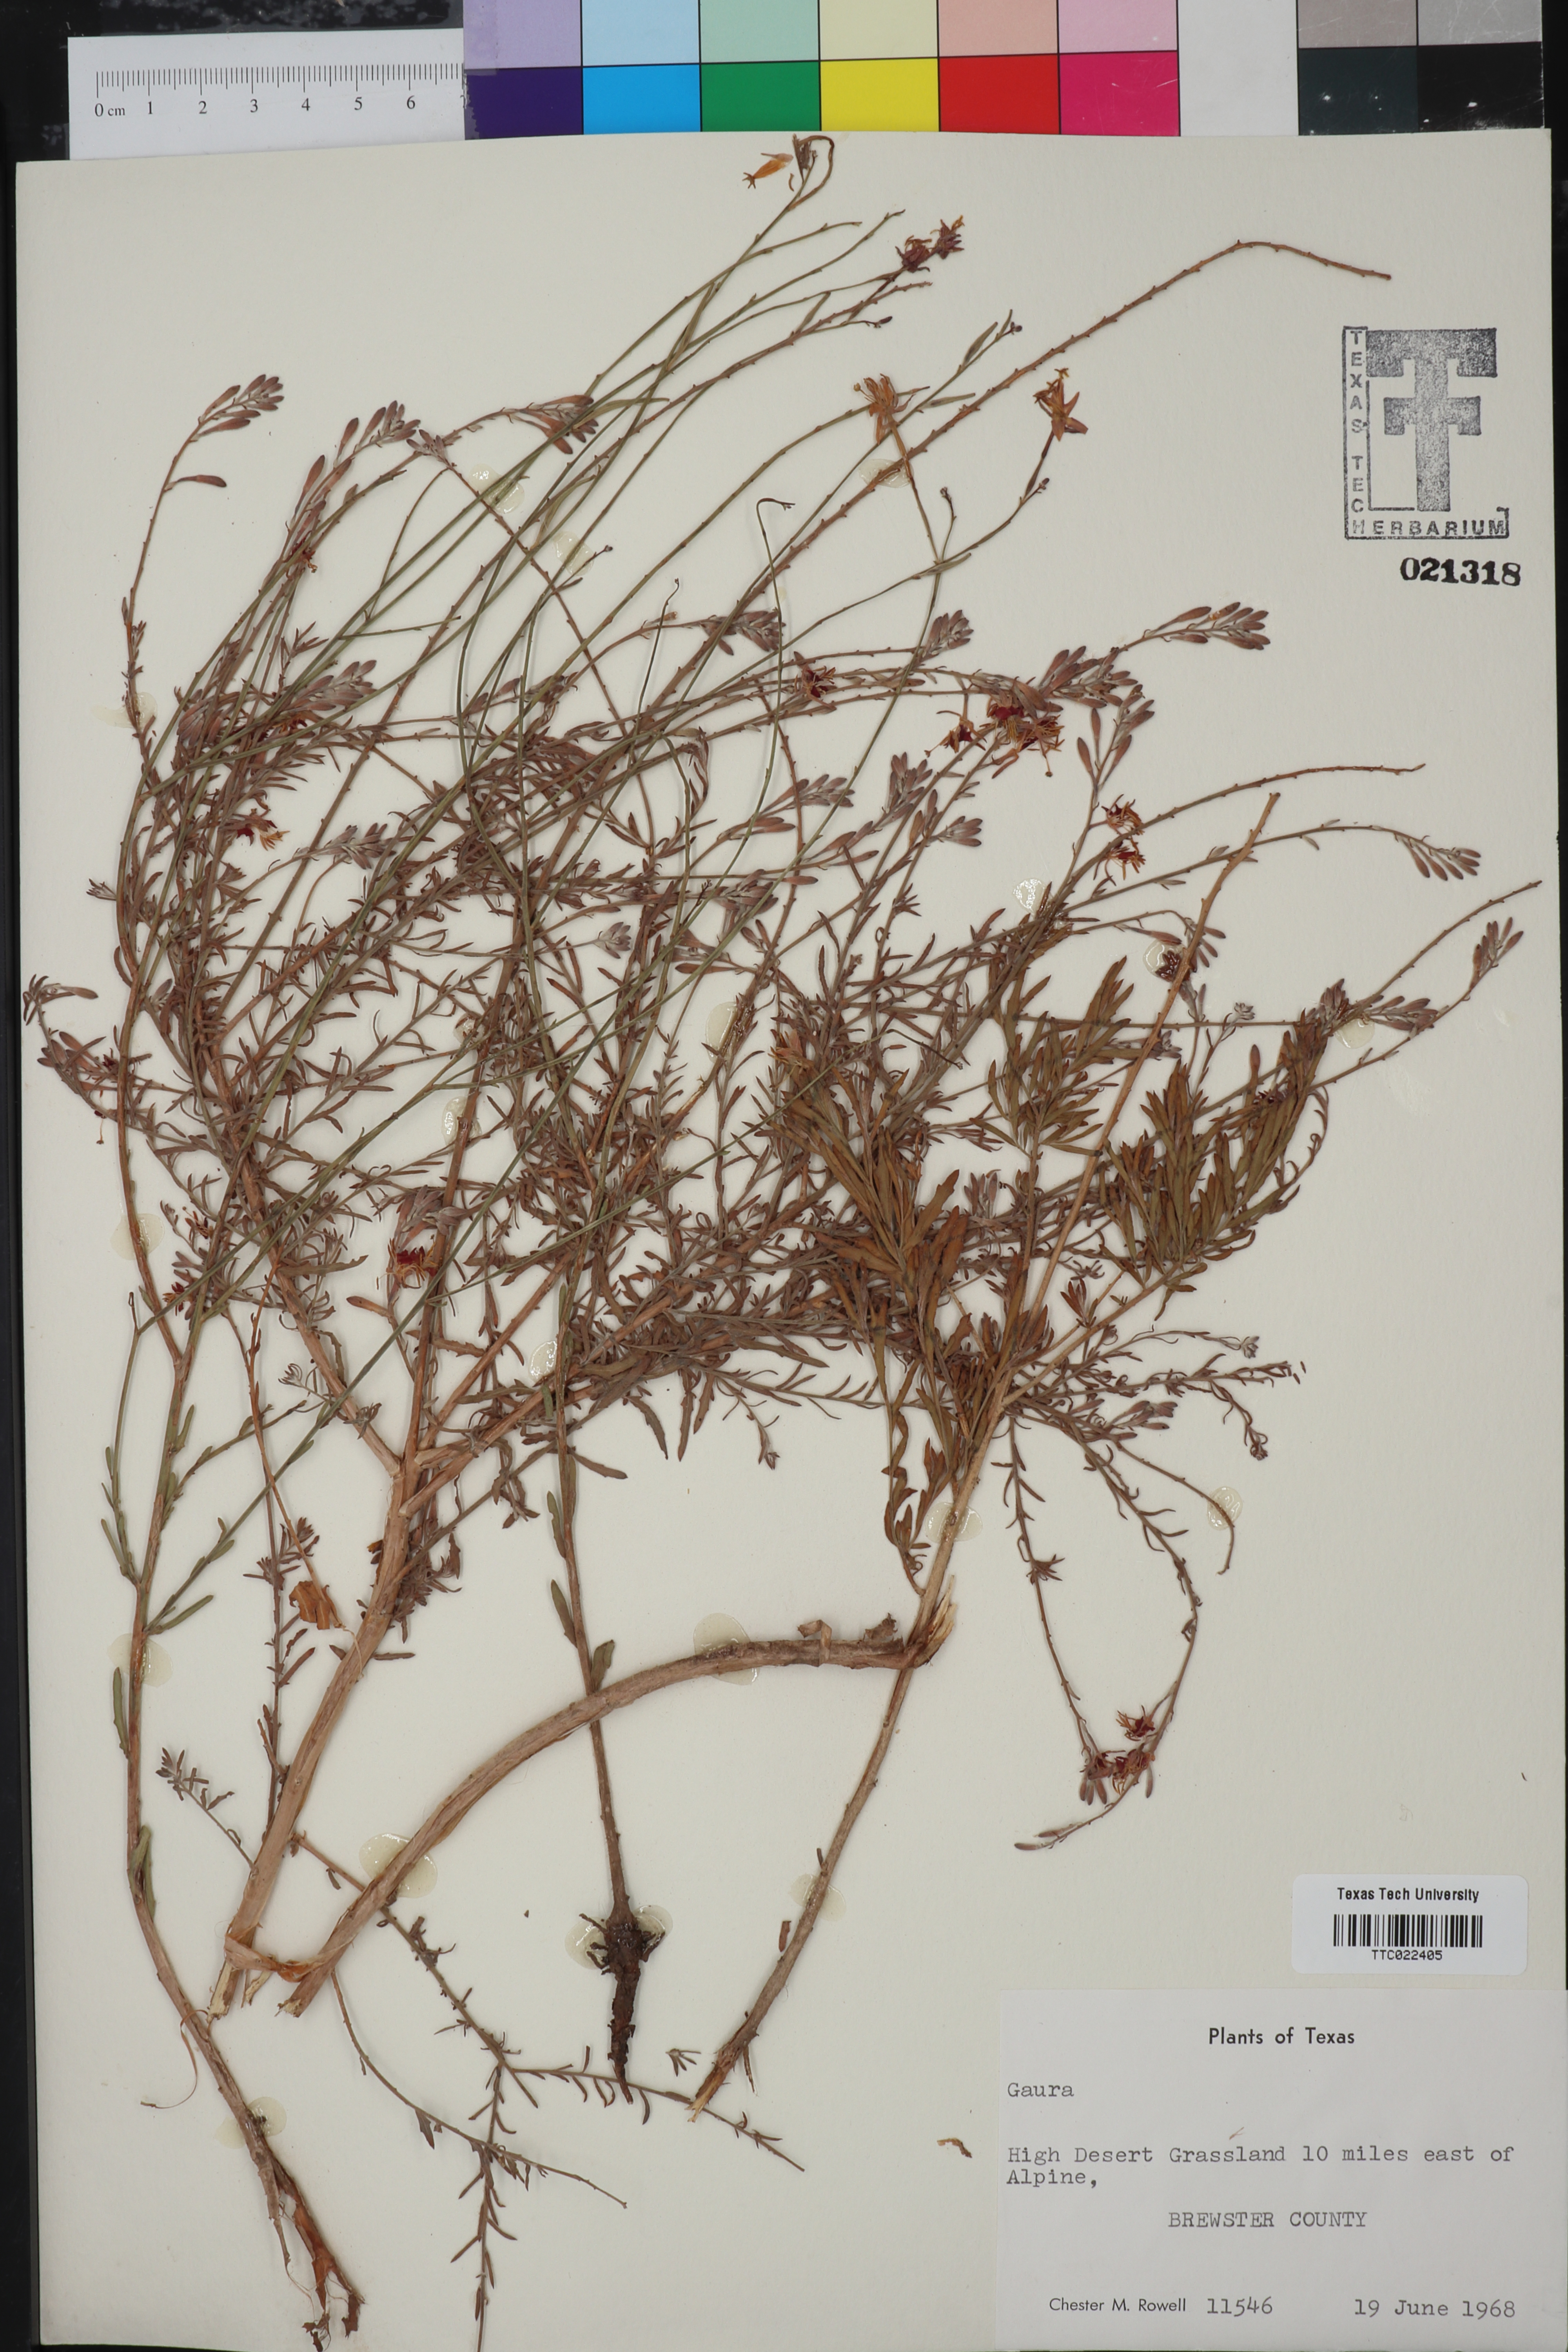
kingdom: Plantae
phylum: Tracheophyta
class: Magnoliopsida
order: Myrtales
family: Onagraceae
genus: Oenothera
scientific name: Oenothera
